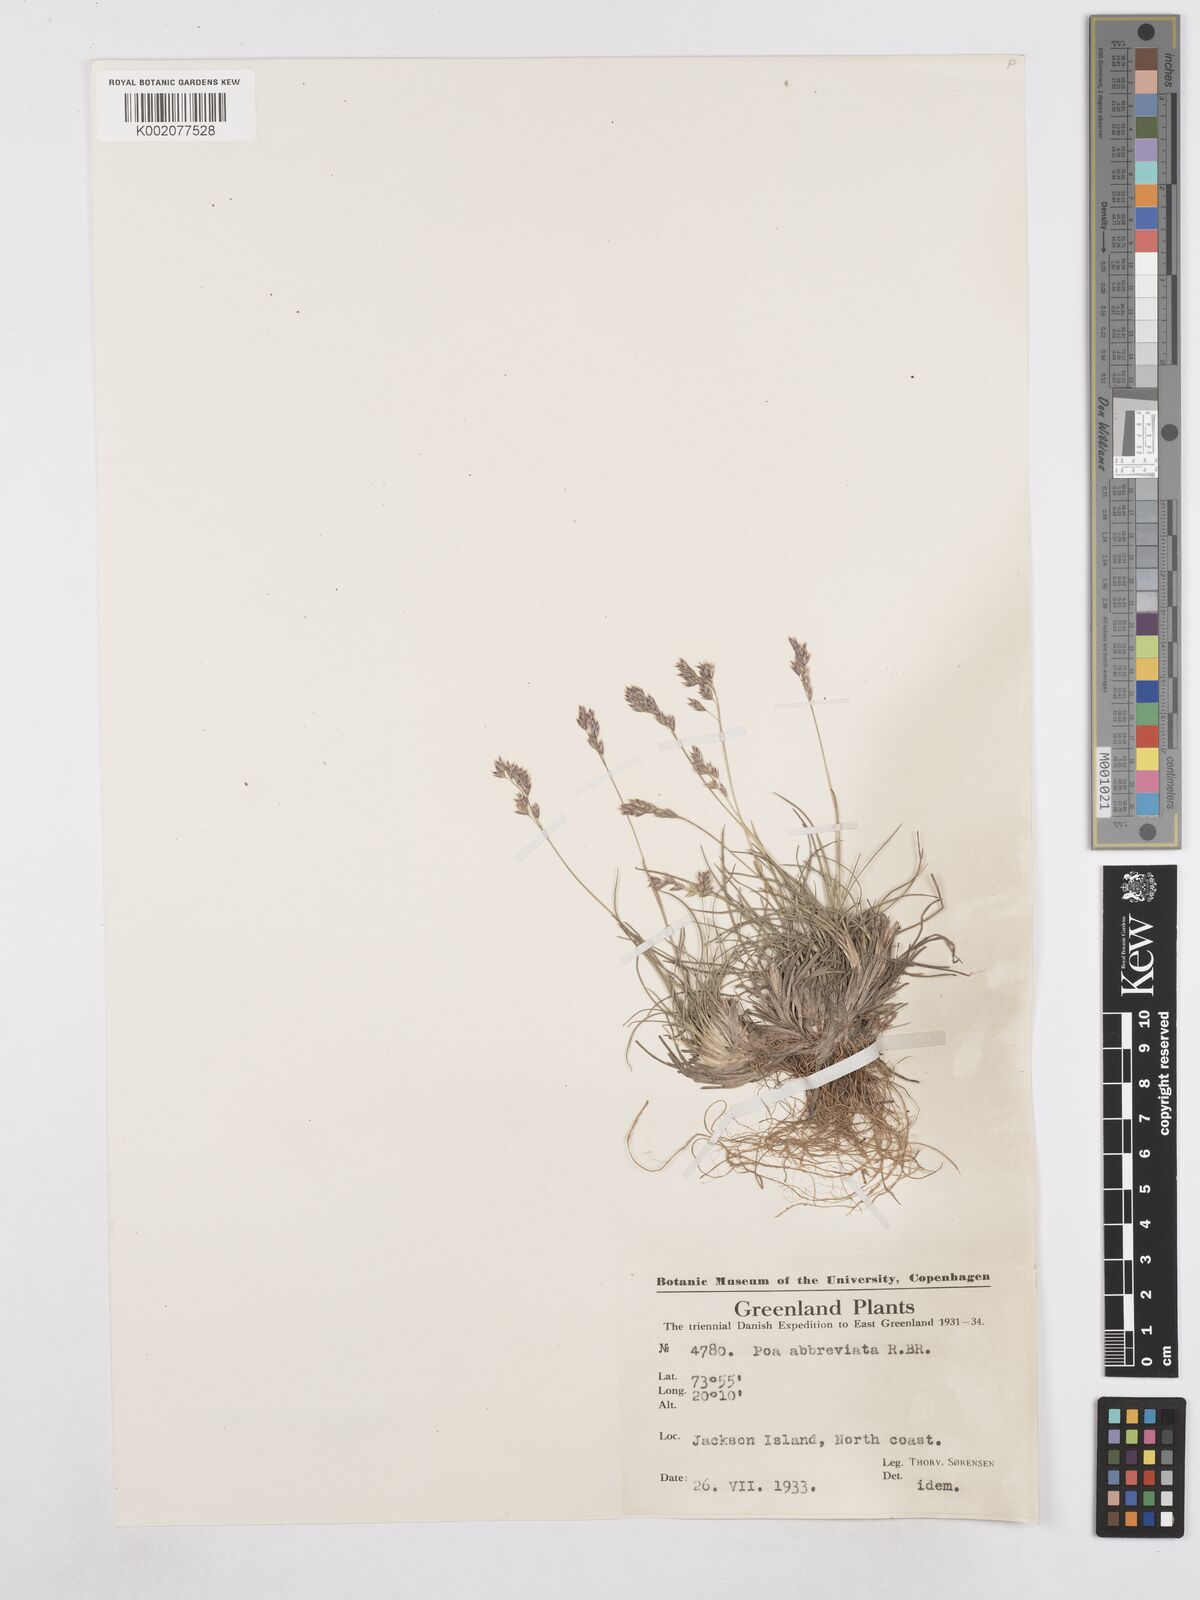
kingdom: Plantae
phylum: Tracheophyta
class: Liliopsida
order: Poales
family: Poaceae
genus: Poa
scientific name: Poa abbreviata
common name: Abbreviated bluegrass
